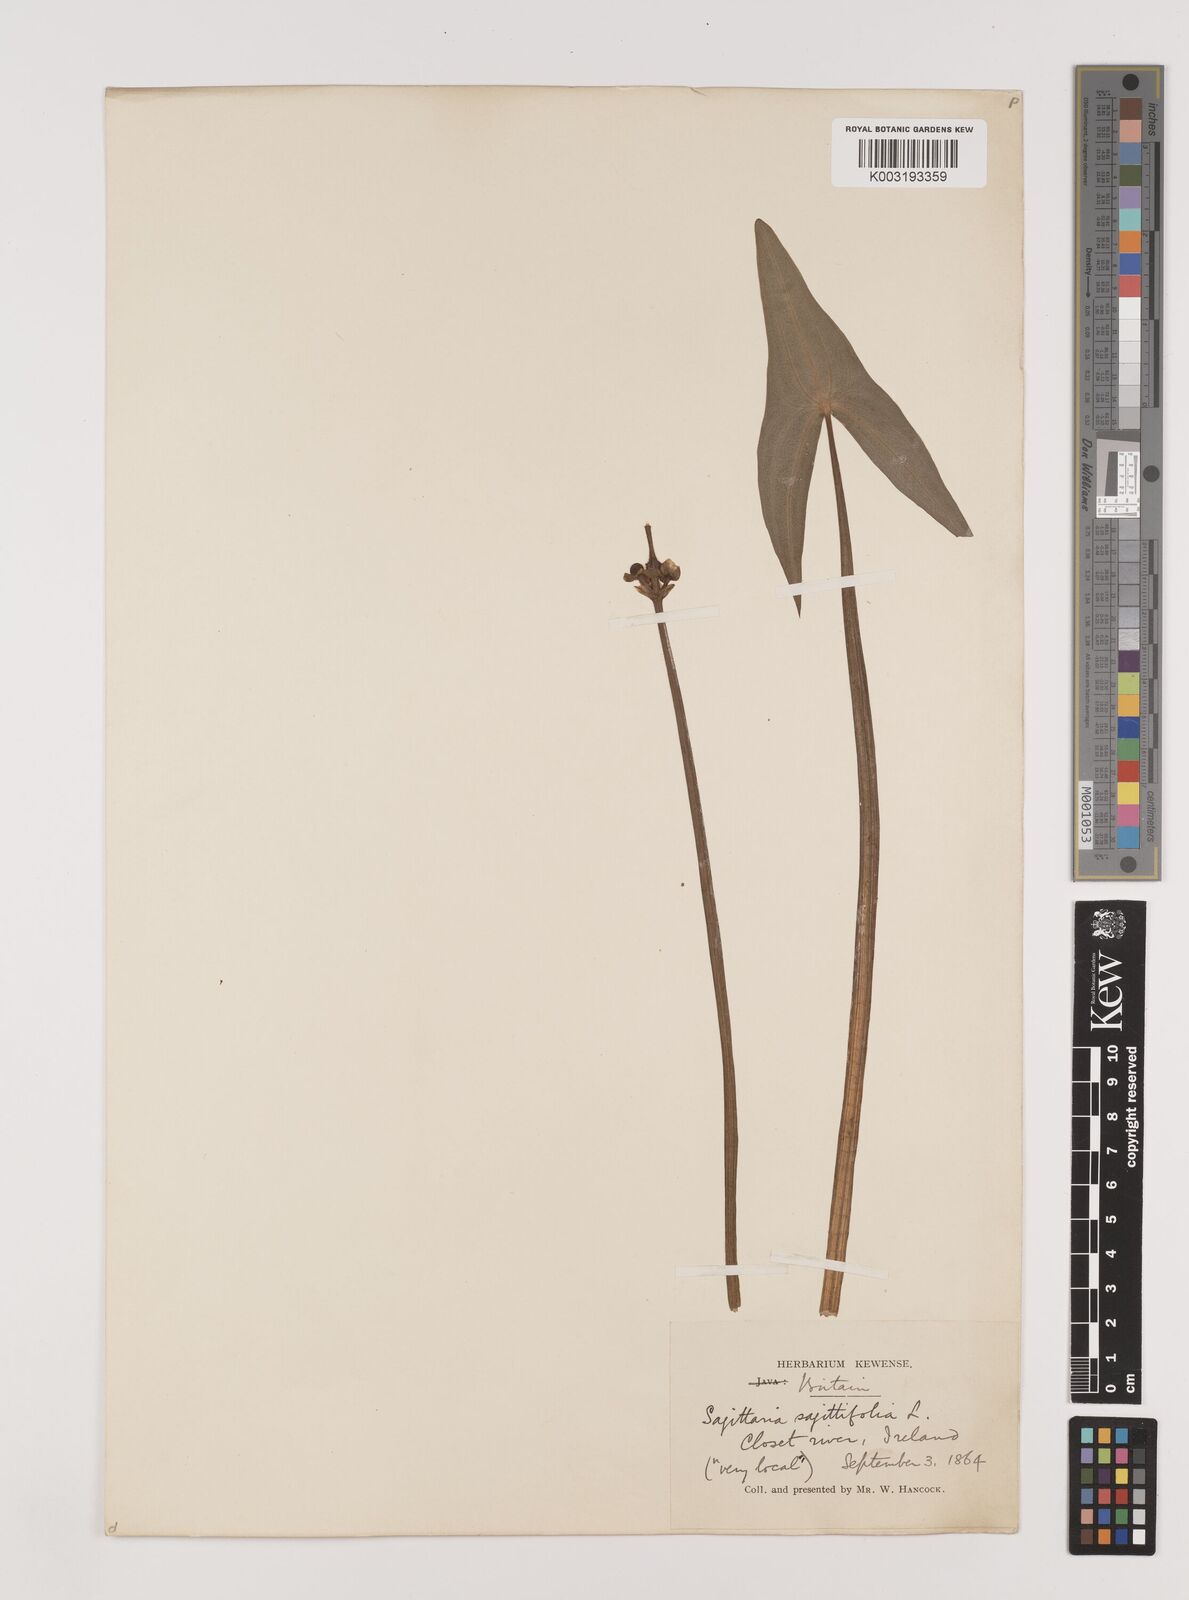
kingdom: Plantae
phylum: Tracheophyta
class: Liliopsida
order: Alismatales
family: Alismataceae
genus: Sagittaria
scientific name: Sagittaria sagittifolia
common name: Arrowhead
